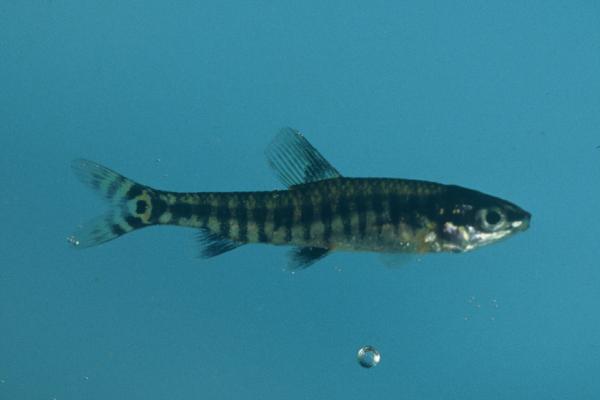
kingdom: Animalia
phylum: Chordata
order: Characiformes
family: Distichodontidae
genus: Nannocharax
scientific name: Nannocharax machadoi
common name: Dwarf citharine
